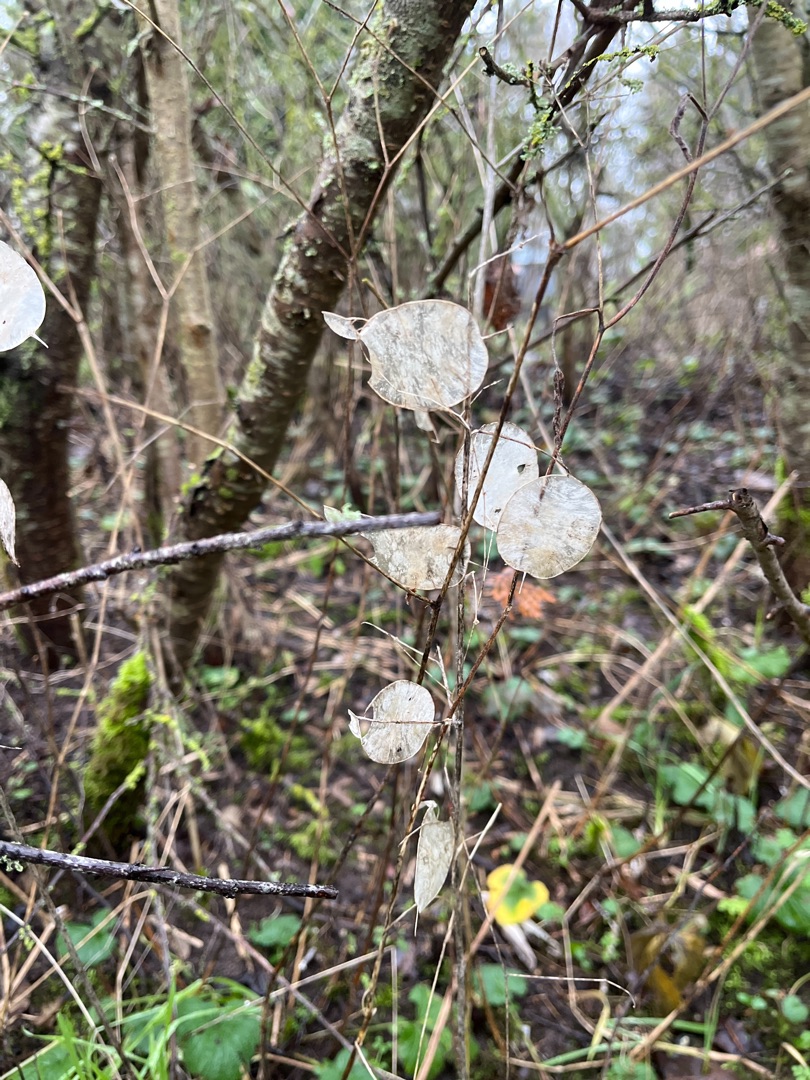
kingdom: Plantae
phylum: Tracheophyta
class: Magnoliopsida
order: Brassicales
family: Brassicaceae
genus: Lunaria
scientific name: Lunaria annua
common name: Judaspenge
